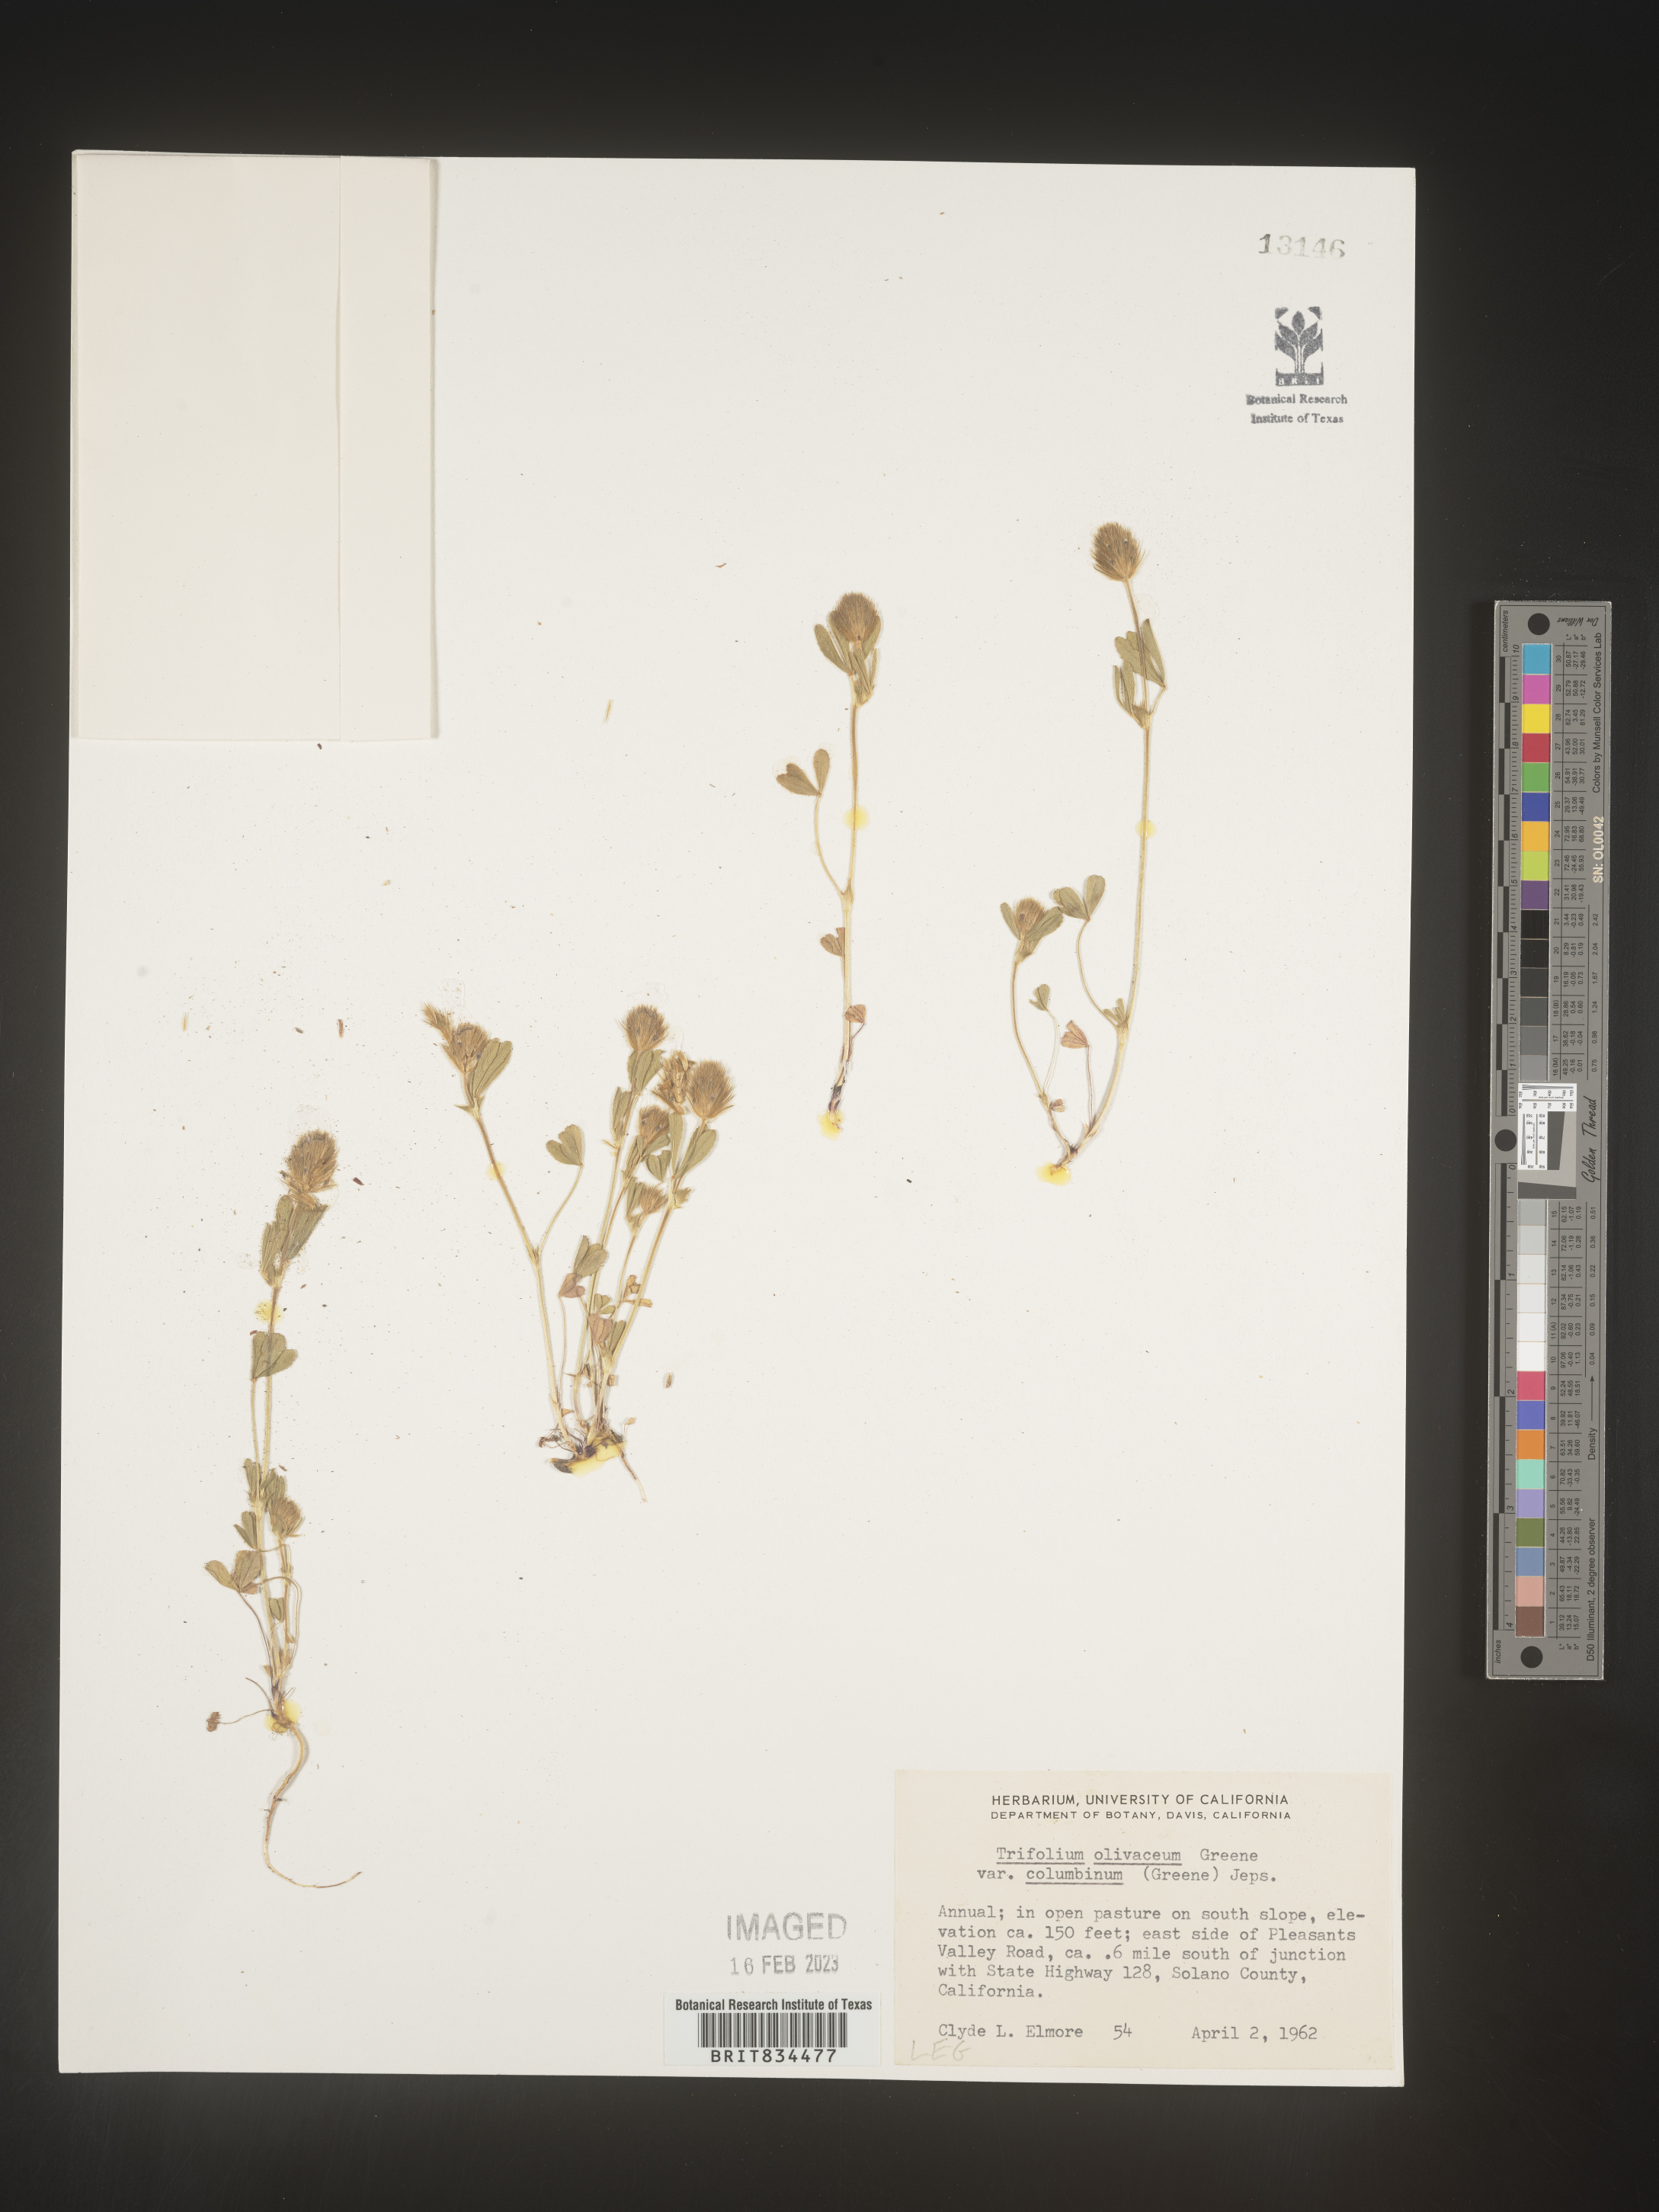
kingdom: Plantae
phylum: Tracheophyta
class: Magnoliopsida
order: Fabales
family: Fabaceae
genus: Trifolium
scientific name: Trifolium
